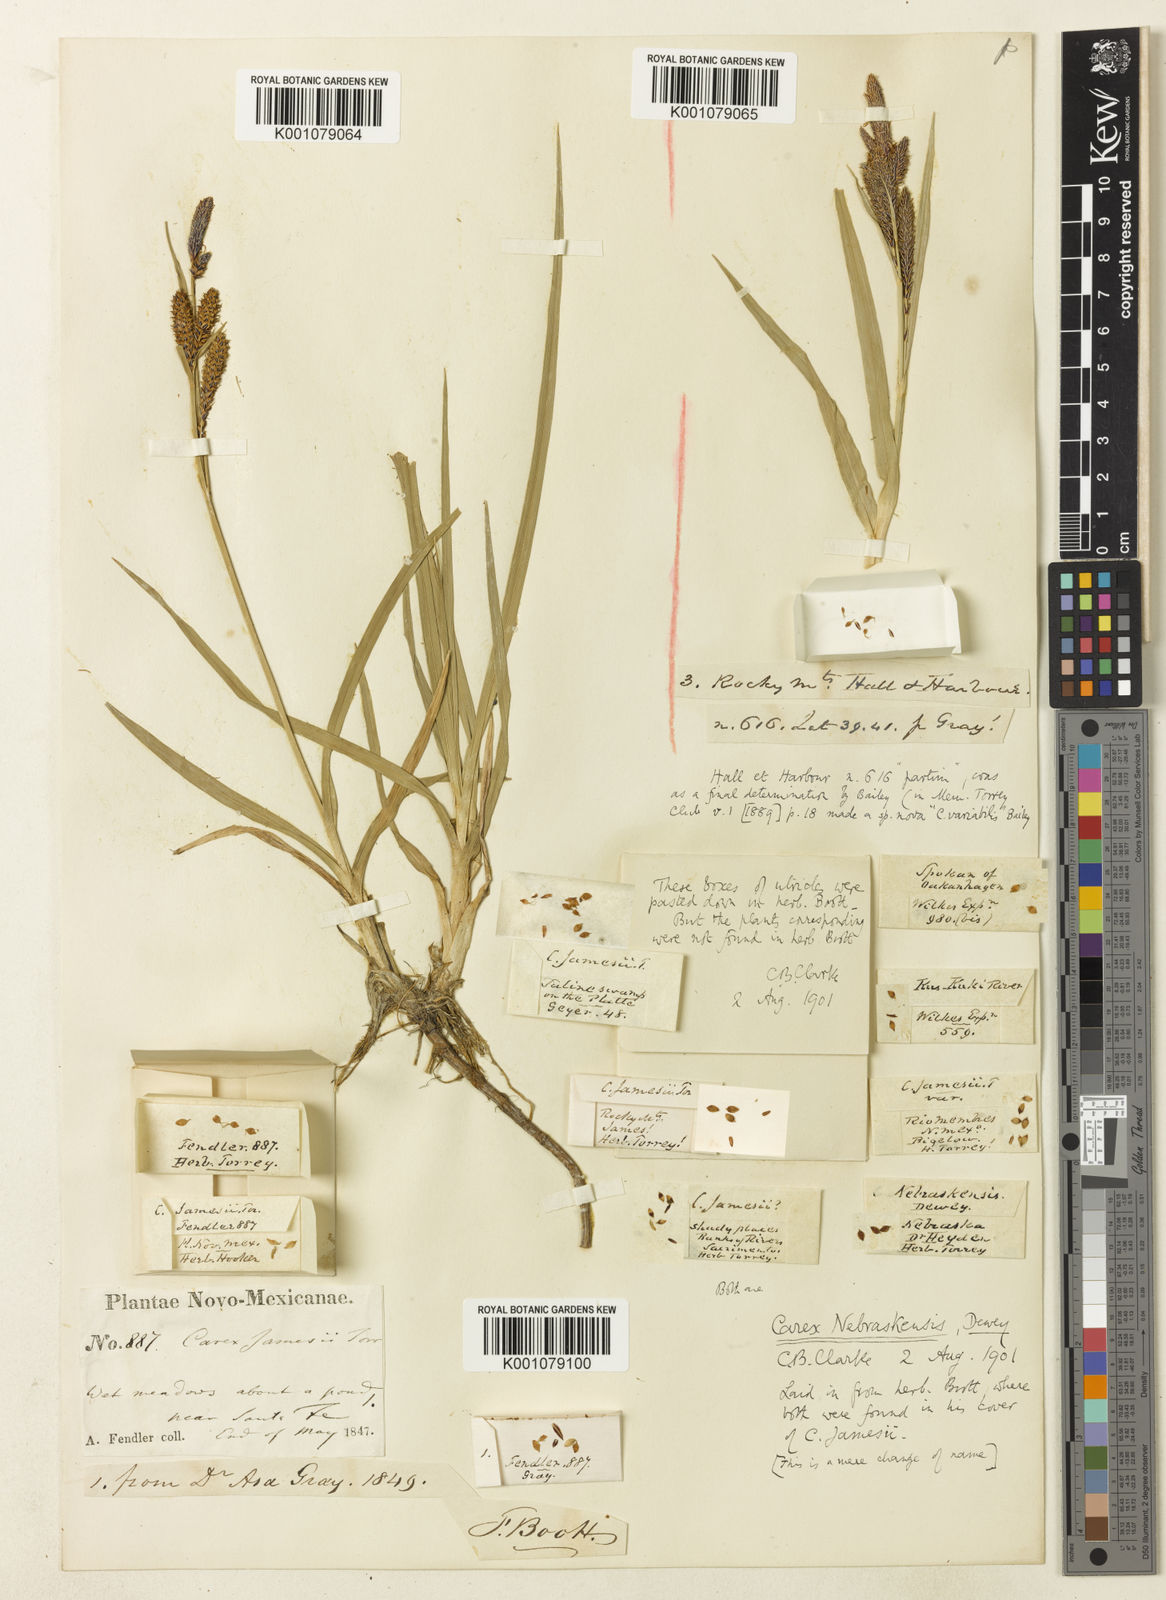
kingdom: Plantae
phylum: Tracheophyta
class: Liliopsida
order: Poales
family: Cyperaceae
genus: Carex
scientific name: Carex aquatilis
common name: Water sedge
